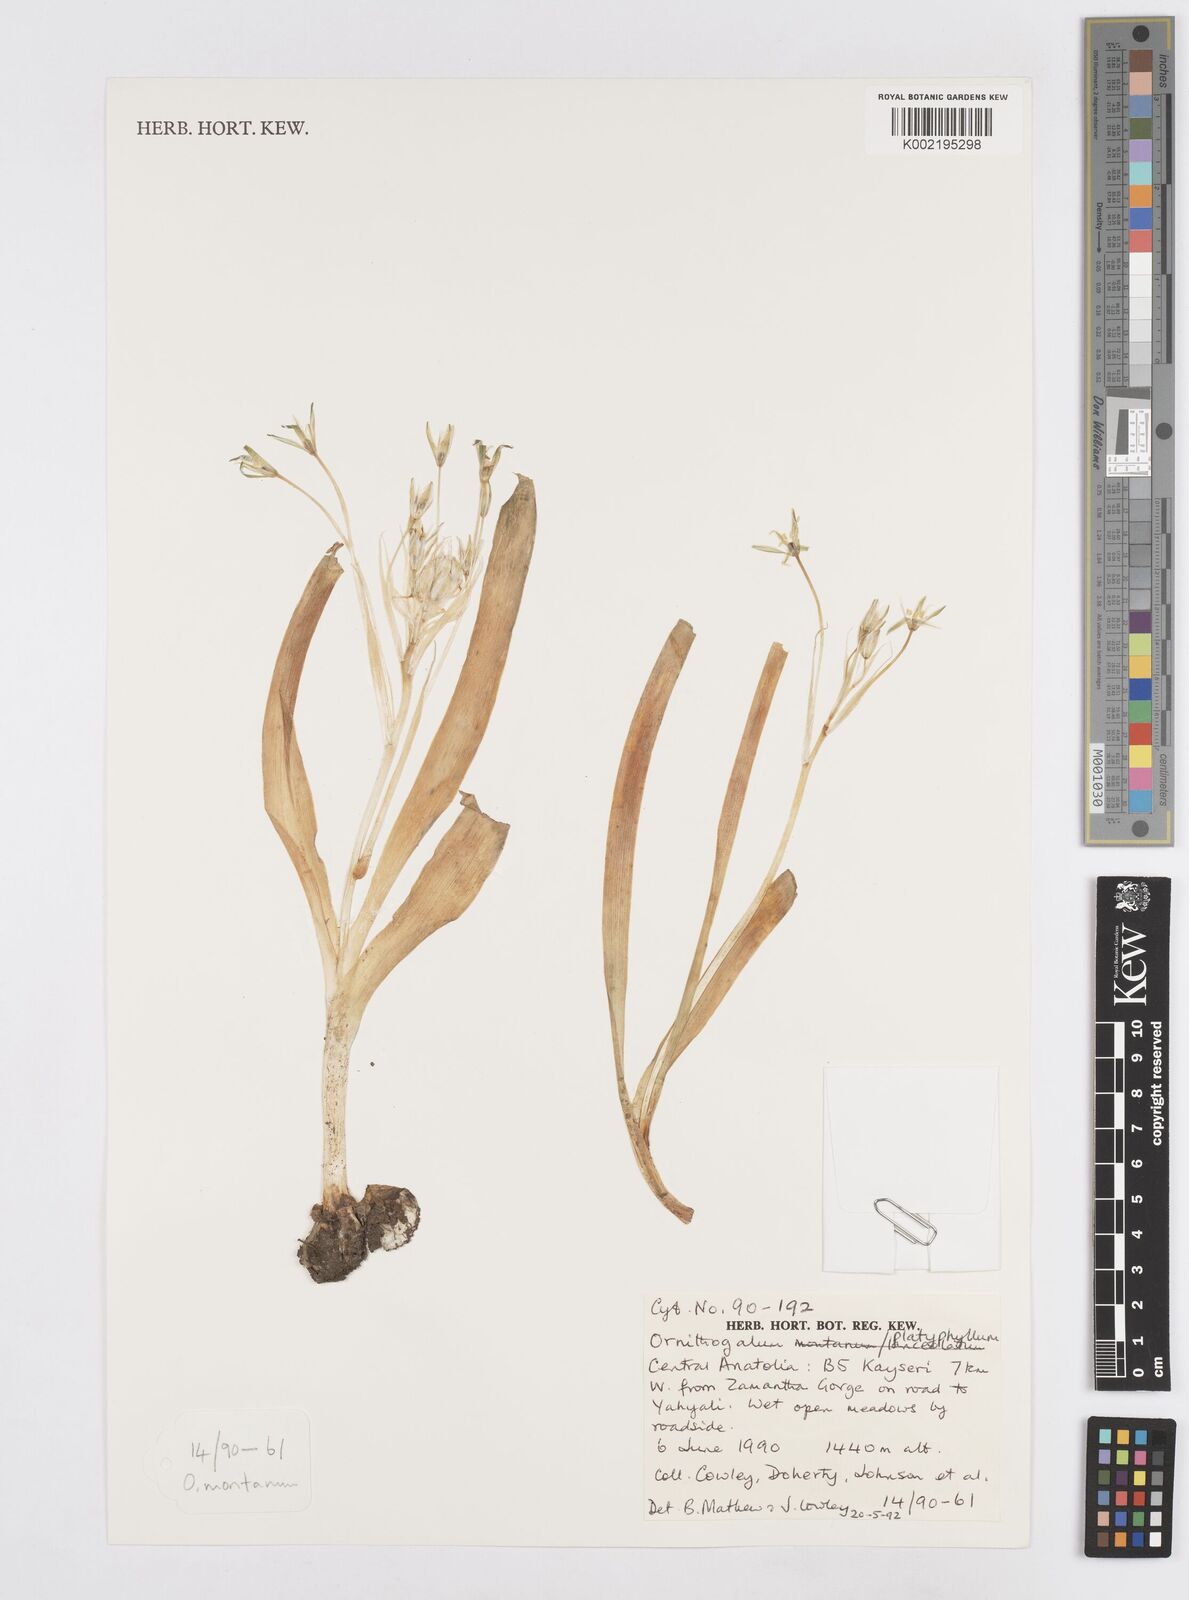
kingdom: Plantae
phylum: Tracheophyta
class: Liliopsida
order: Asparagales
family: Asparagaceae
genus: Ornithogalum
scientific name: Ornithogalum montanum
